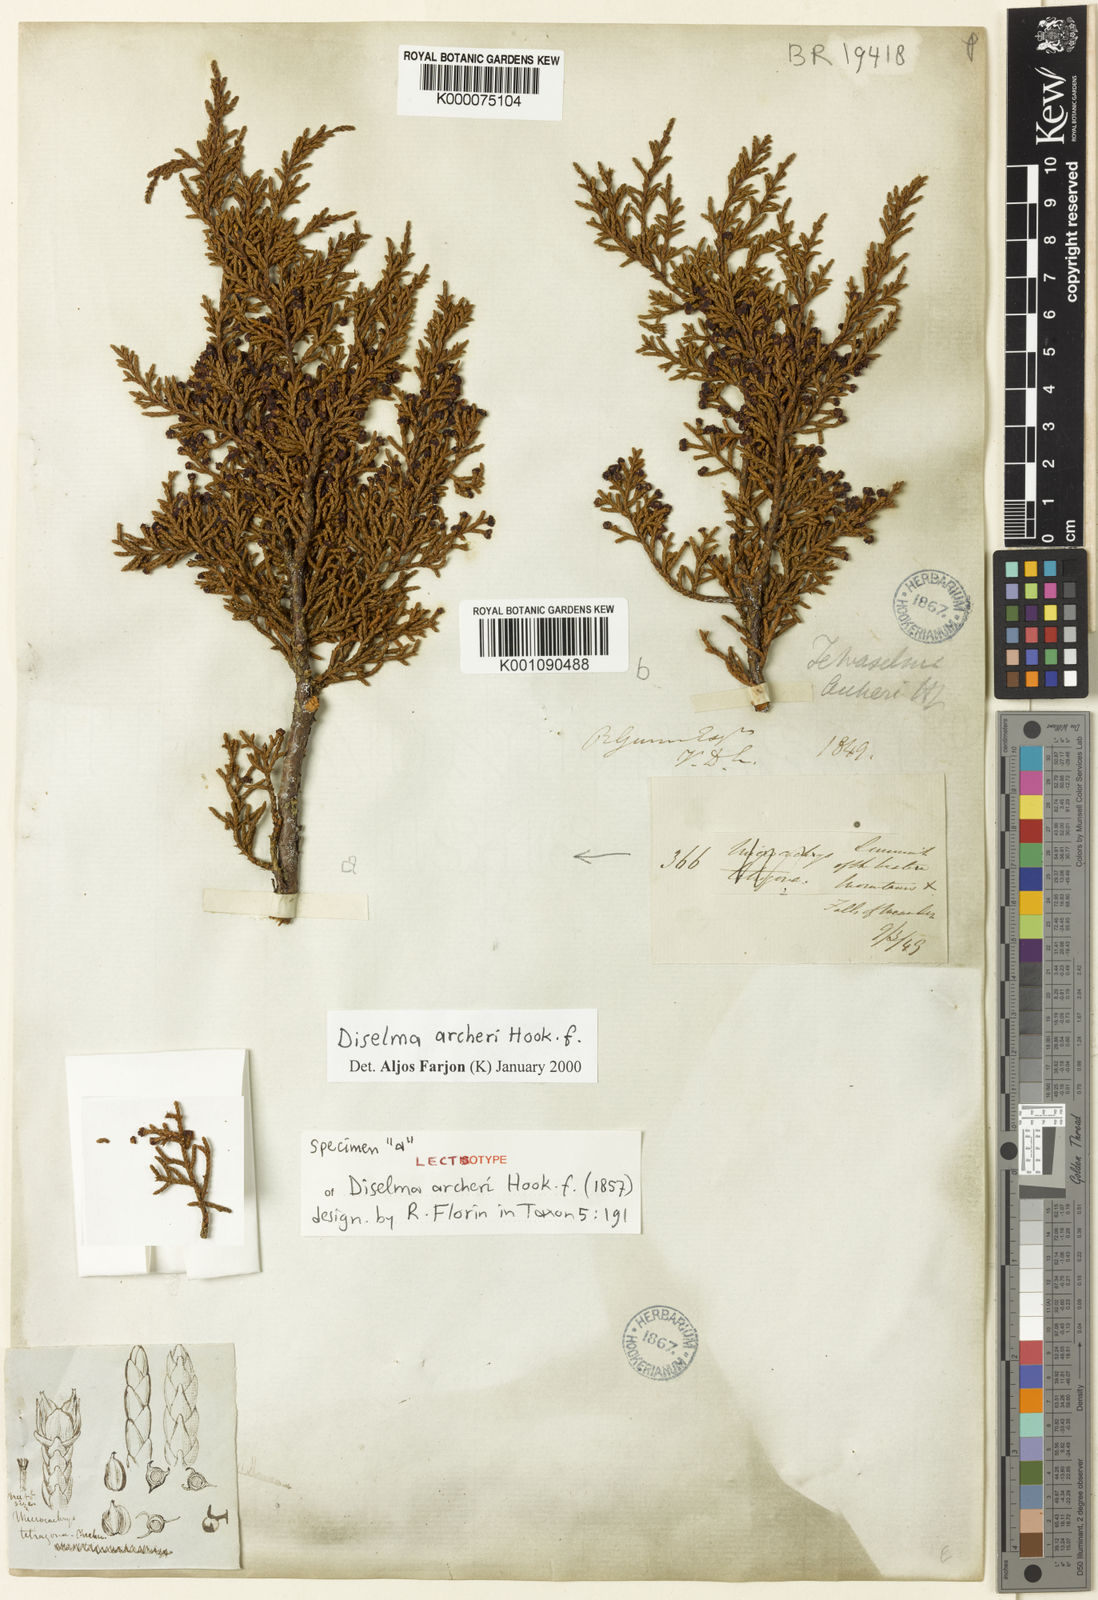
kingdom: Plantae
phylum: Tracheophyta
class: Pinopsida
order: Pinales
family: Cupressaceae
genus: Diselma
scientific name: Diselma archeri
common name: Cheshunt pine
